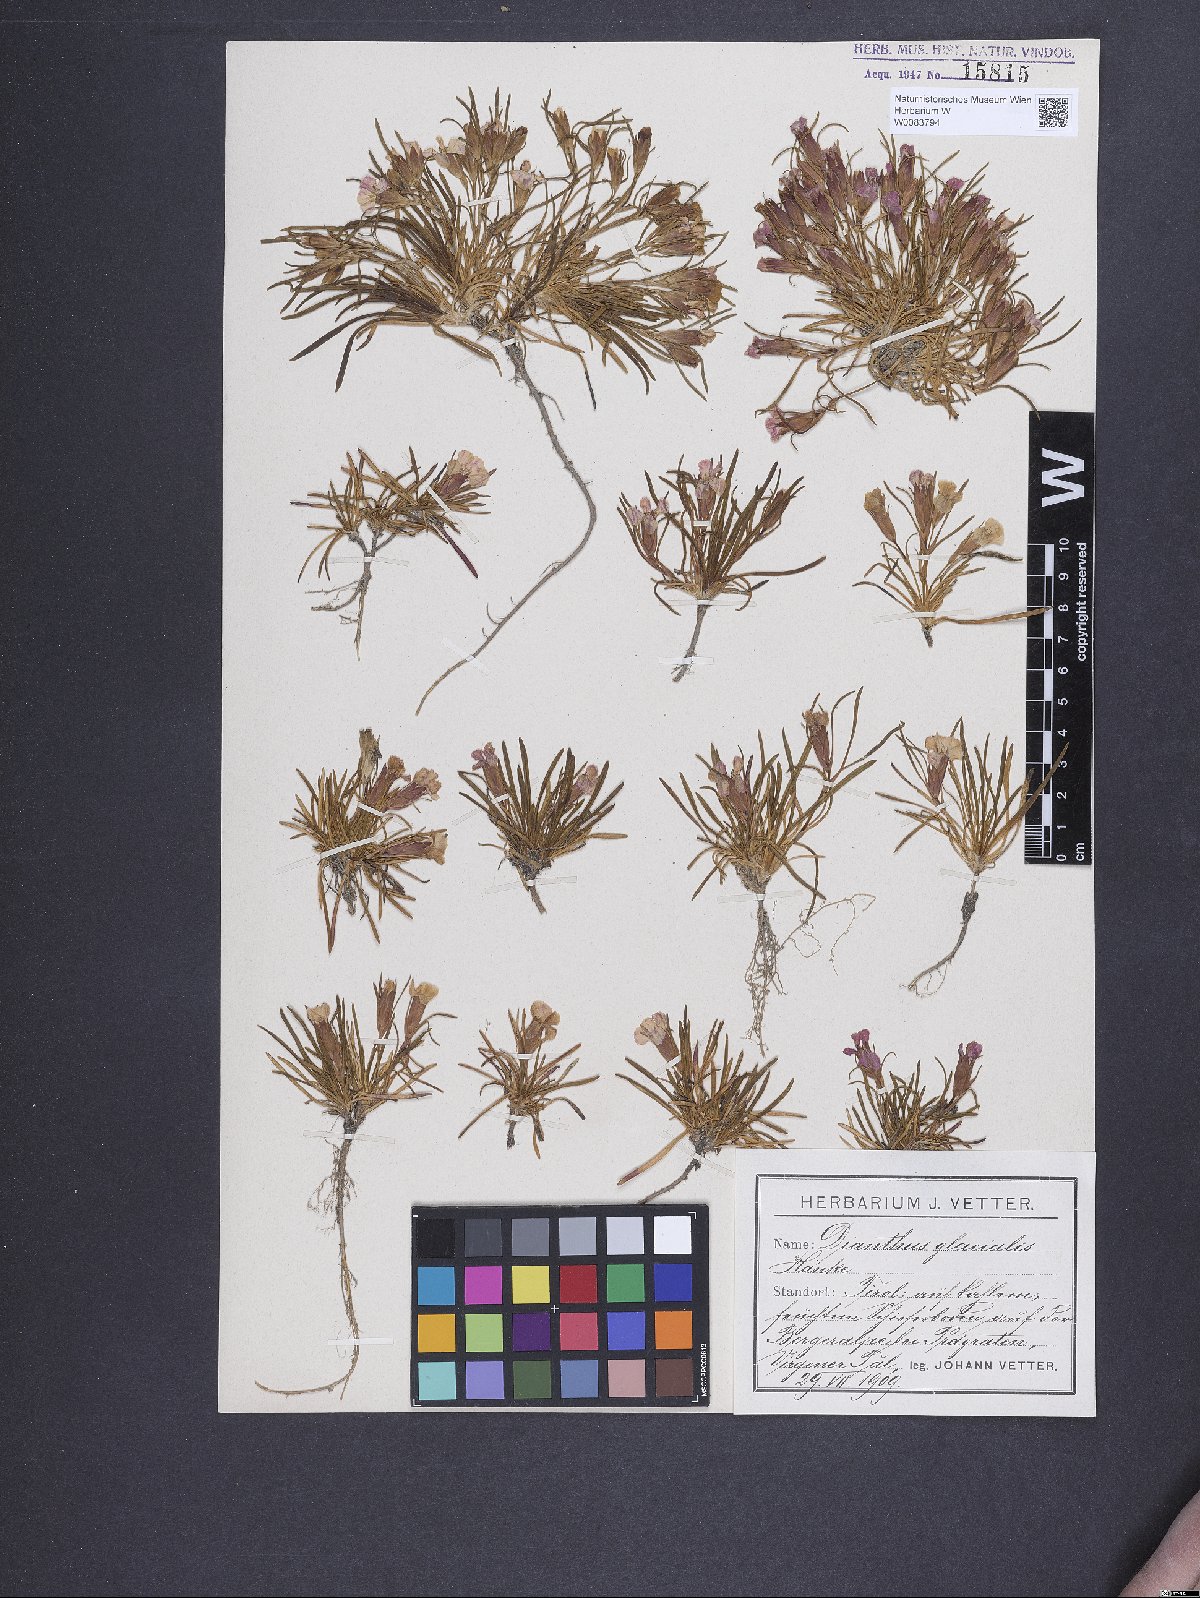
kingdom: Plantae
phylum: Tracheophyta
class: Magnoliopsida
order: Caryophyllales
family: Caryophyllaceae
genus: Dianthus
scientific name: Dianthus glacialis
